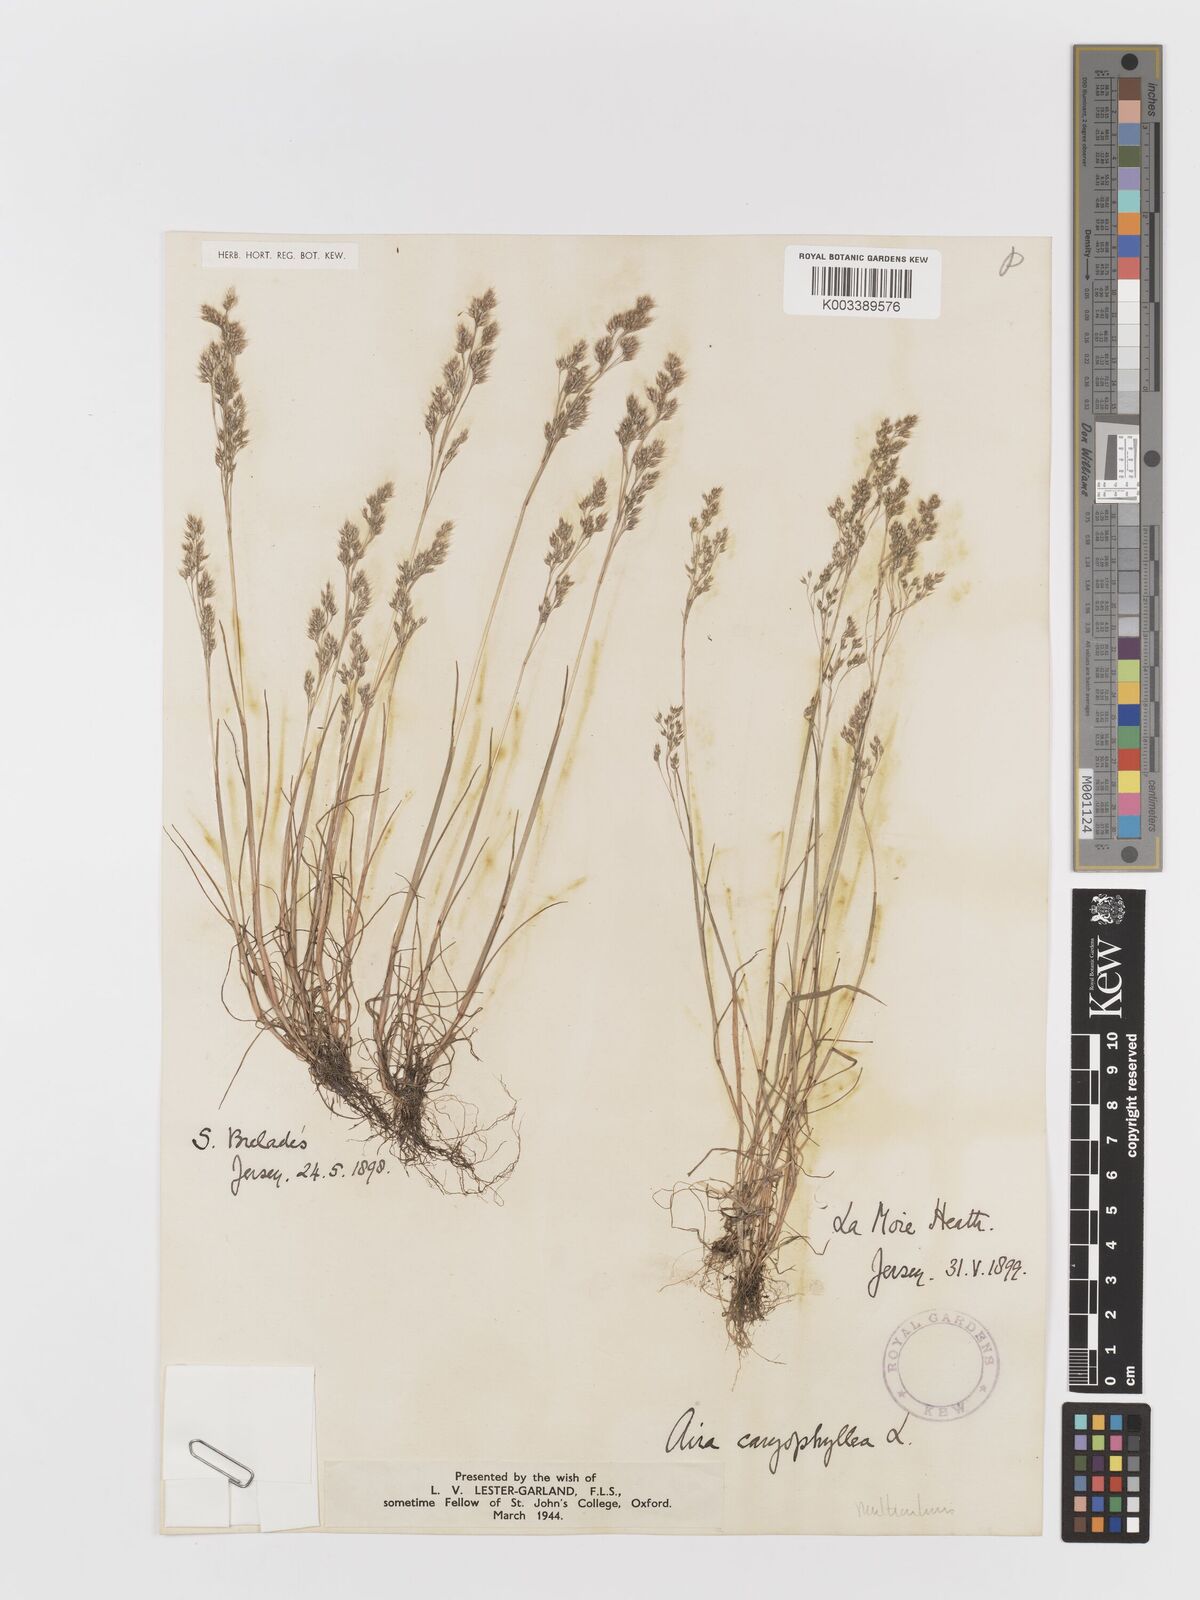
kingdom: Plantae
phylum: Tracheophyta
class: Liliopsida
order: Poales
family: Poaceae
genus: Aira
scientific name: Aira caryophyllea
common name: Silver hairgrass
